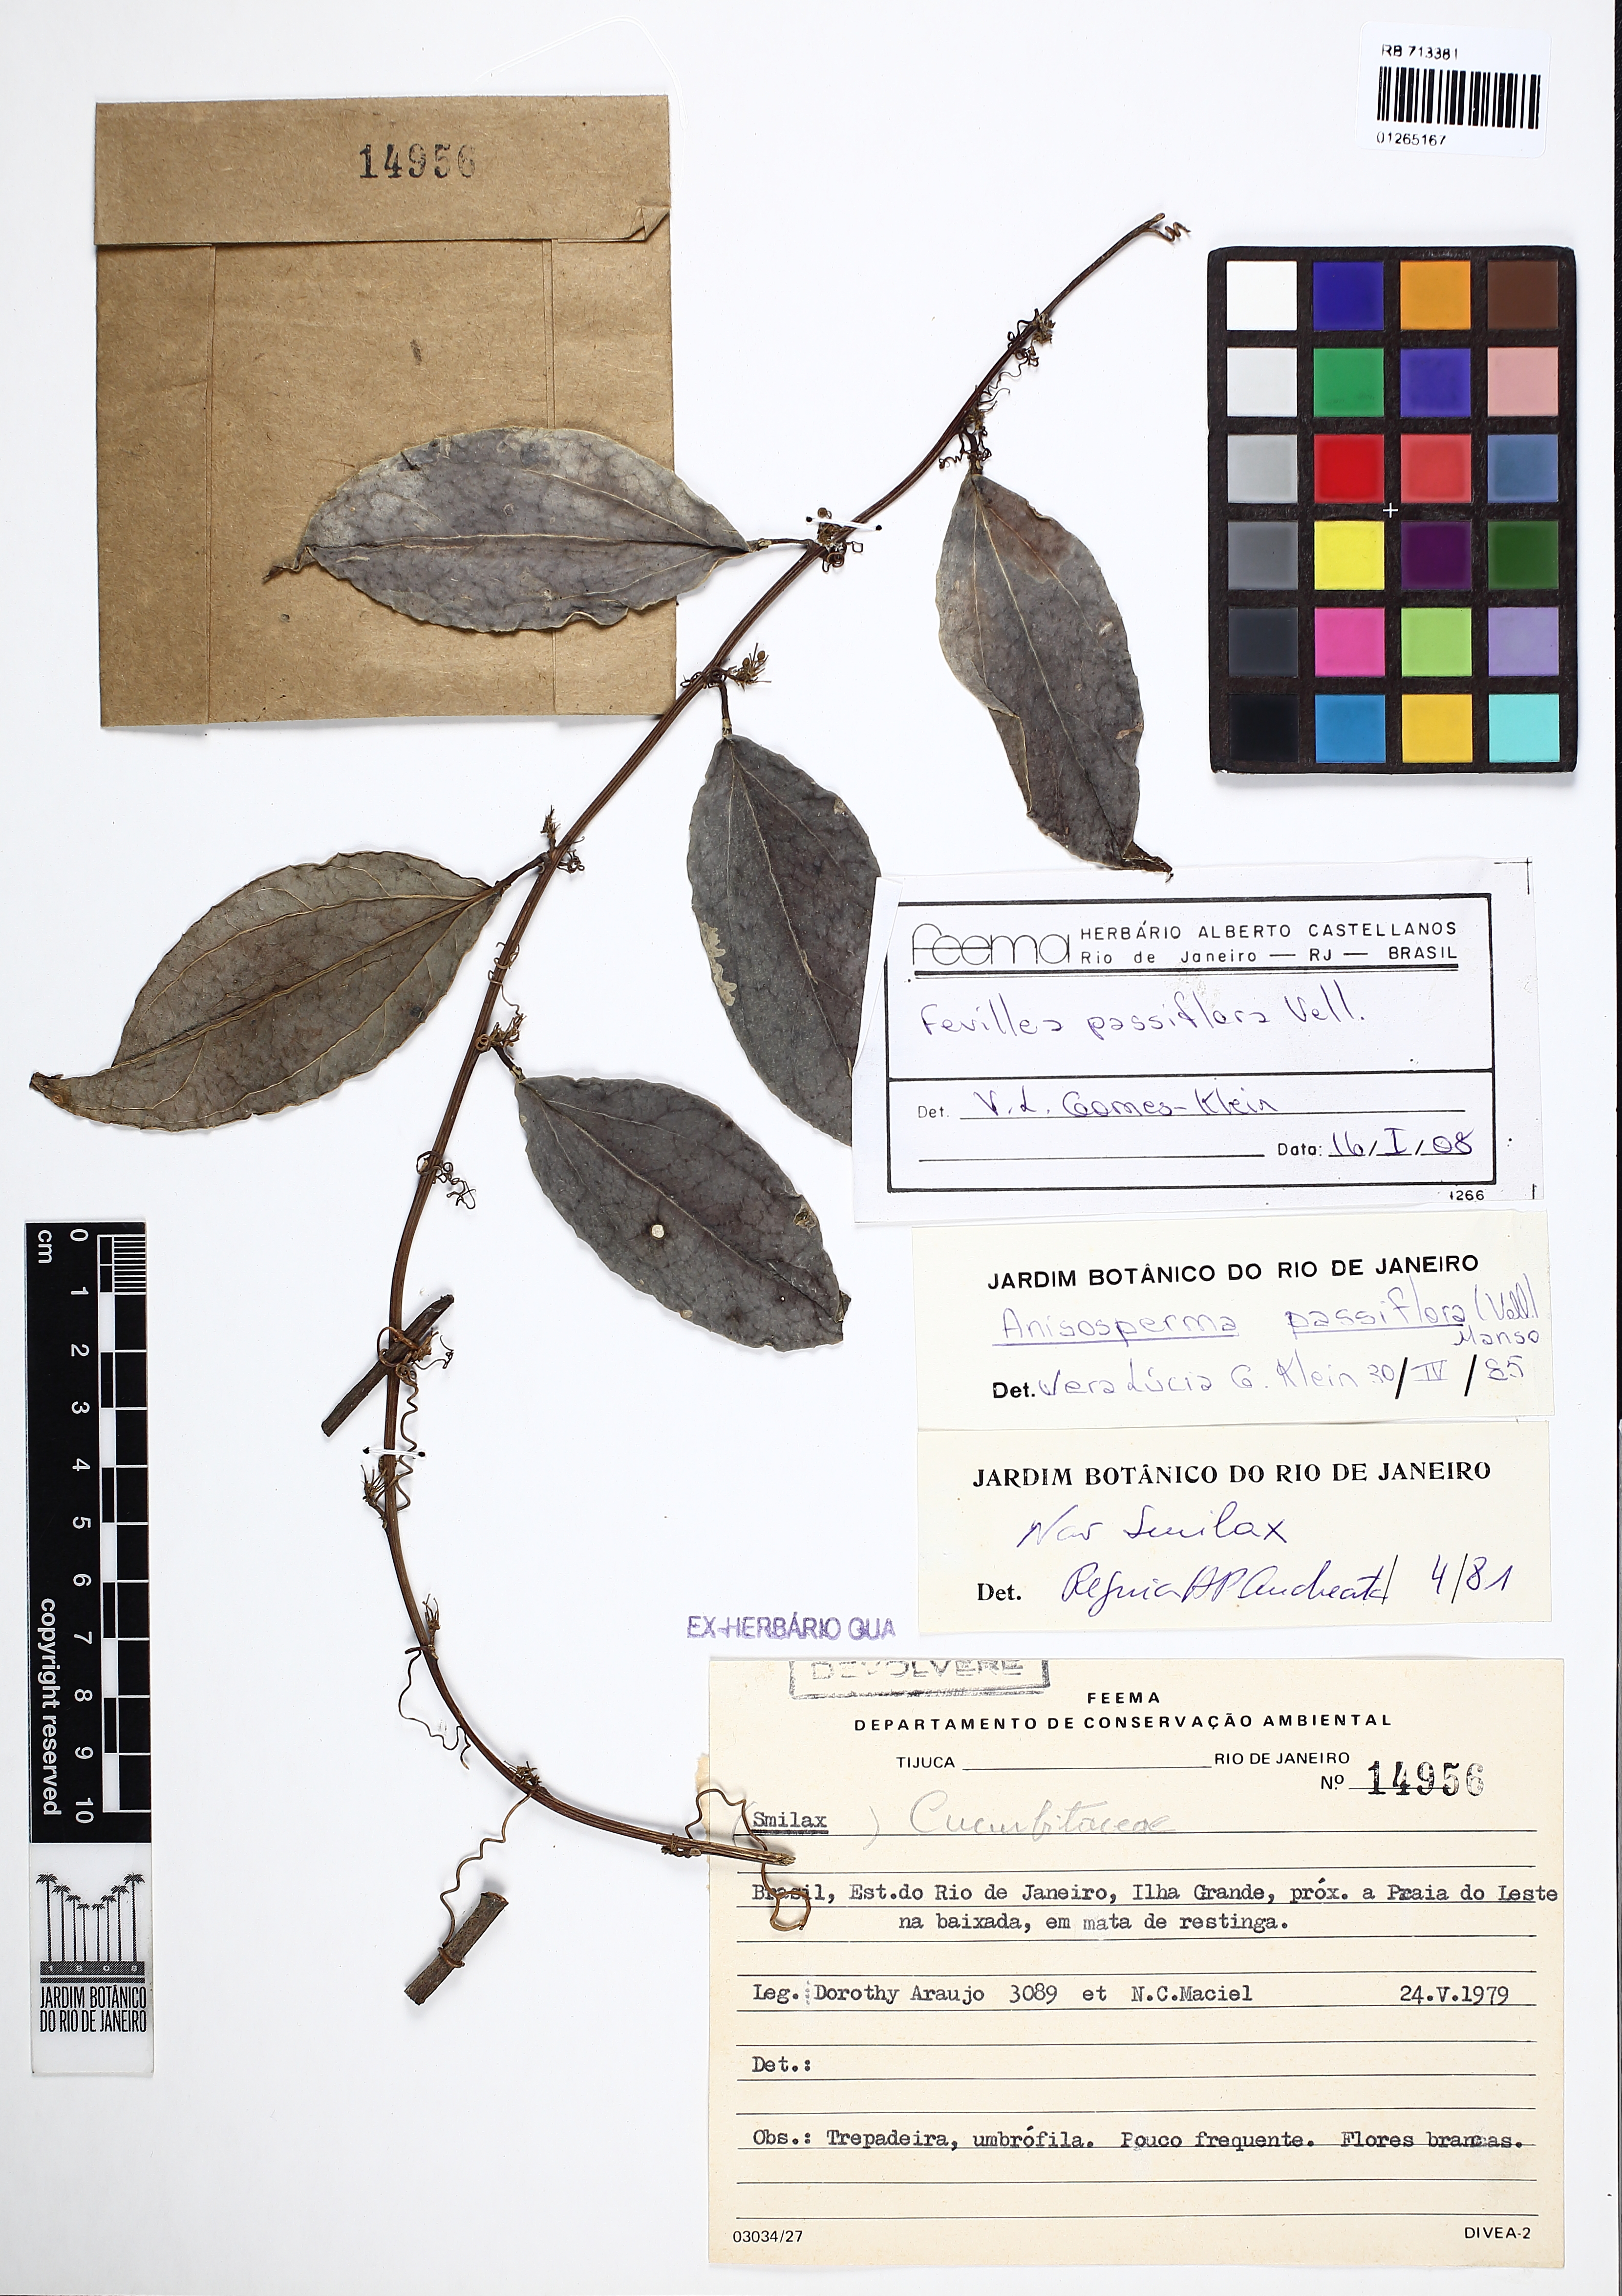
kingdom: Plantae
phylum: Tracheophyta
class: Magnoliopsida
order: Cucurbitales
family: Cucurbitaceae
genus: Anisosperma
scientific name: Anisosperma passiflora
